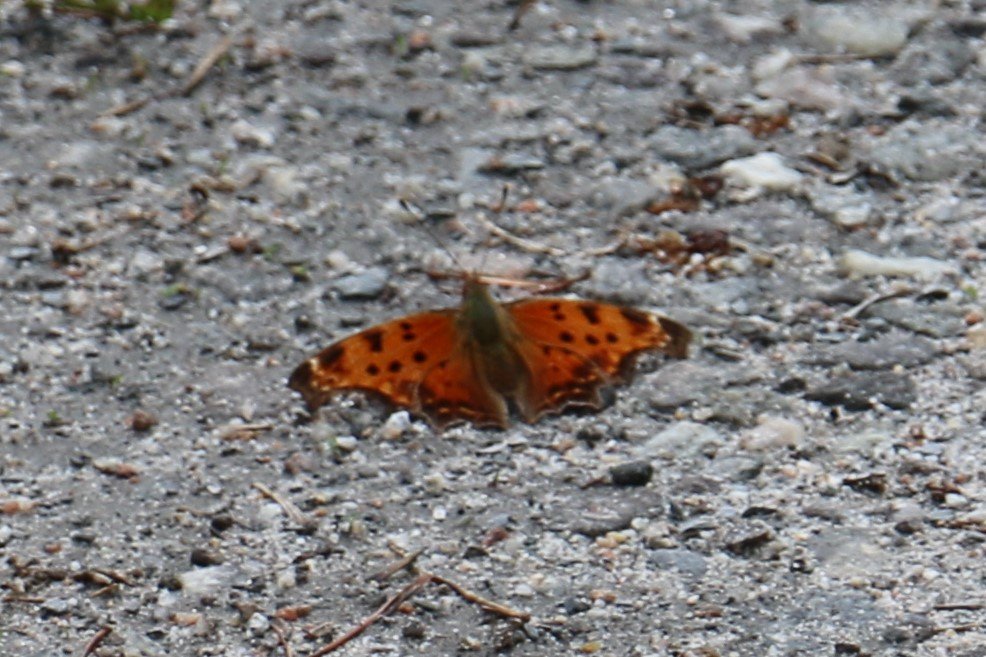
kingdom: Animalia
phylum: Arthropoda
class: Insecta
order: Lepidoptera
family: Nymphalidae
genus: Polygonia
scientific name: Polygonia comma
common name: Eastern Comma
